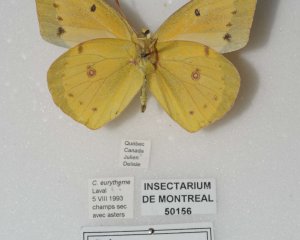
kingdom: Animalia
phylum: Arthropoda
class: Insecta
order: Lepidoptera
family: Pieridae
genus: Colias
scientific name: Colias eurytheme
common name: Orange Sulphur
